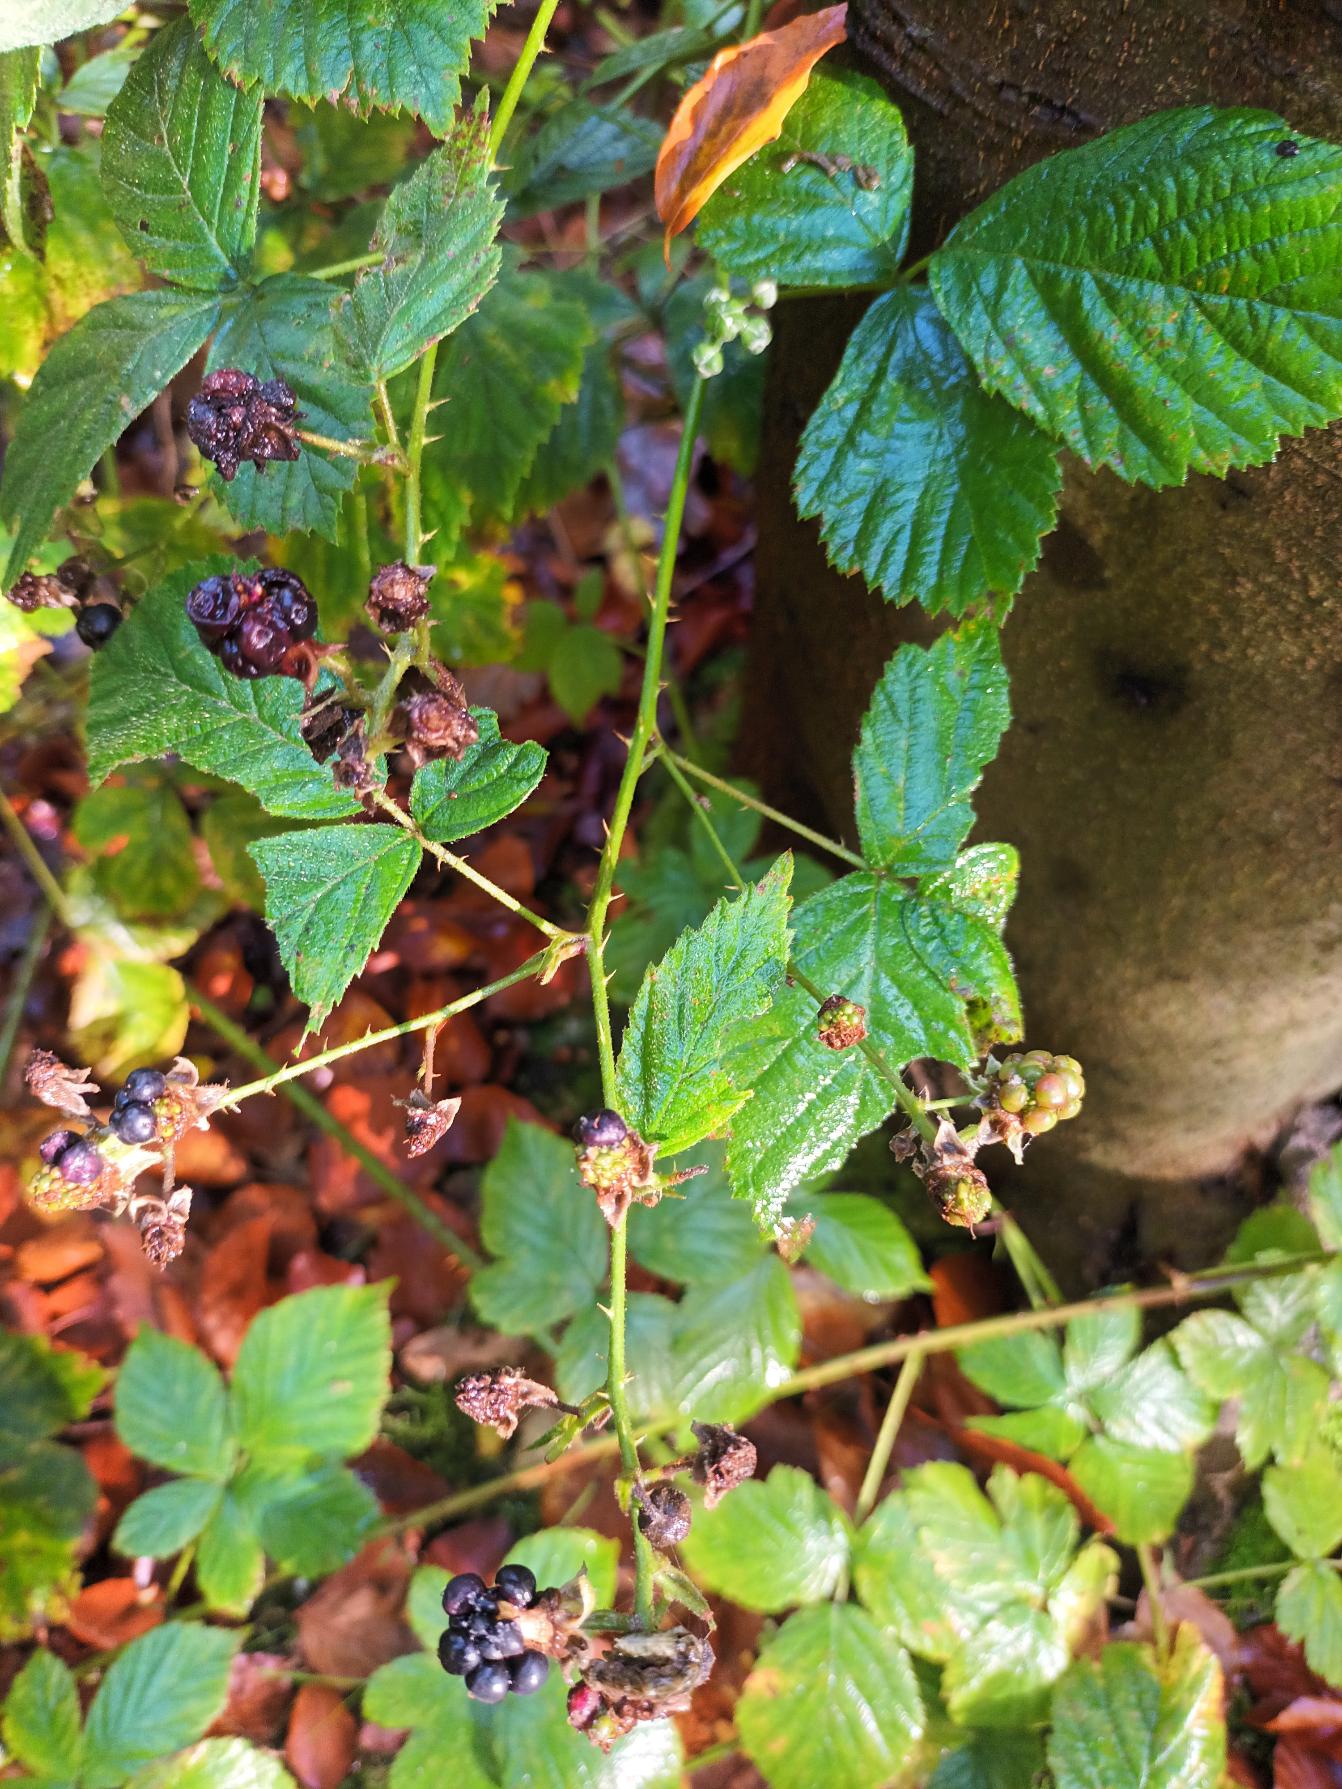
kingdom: Plantae
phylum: Tracheophyta
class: Magnoliopsida
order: Rosales
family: Rosaceae
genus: Rubus
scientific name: Rubus fasciculatus
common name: Gråbladet hasselbrombær
